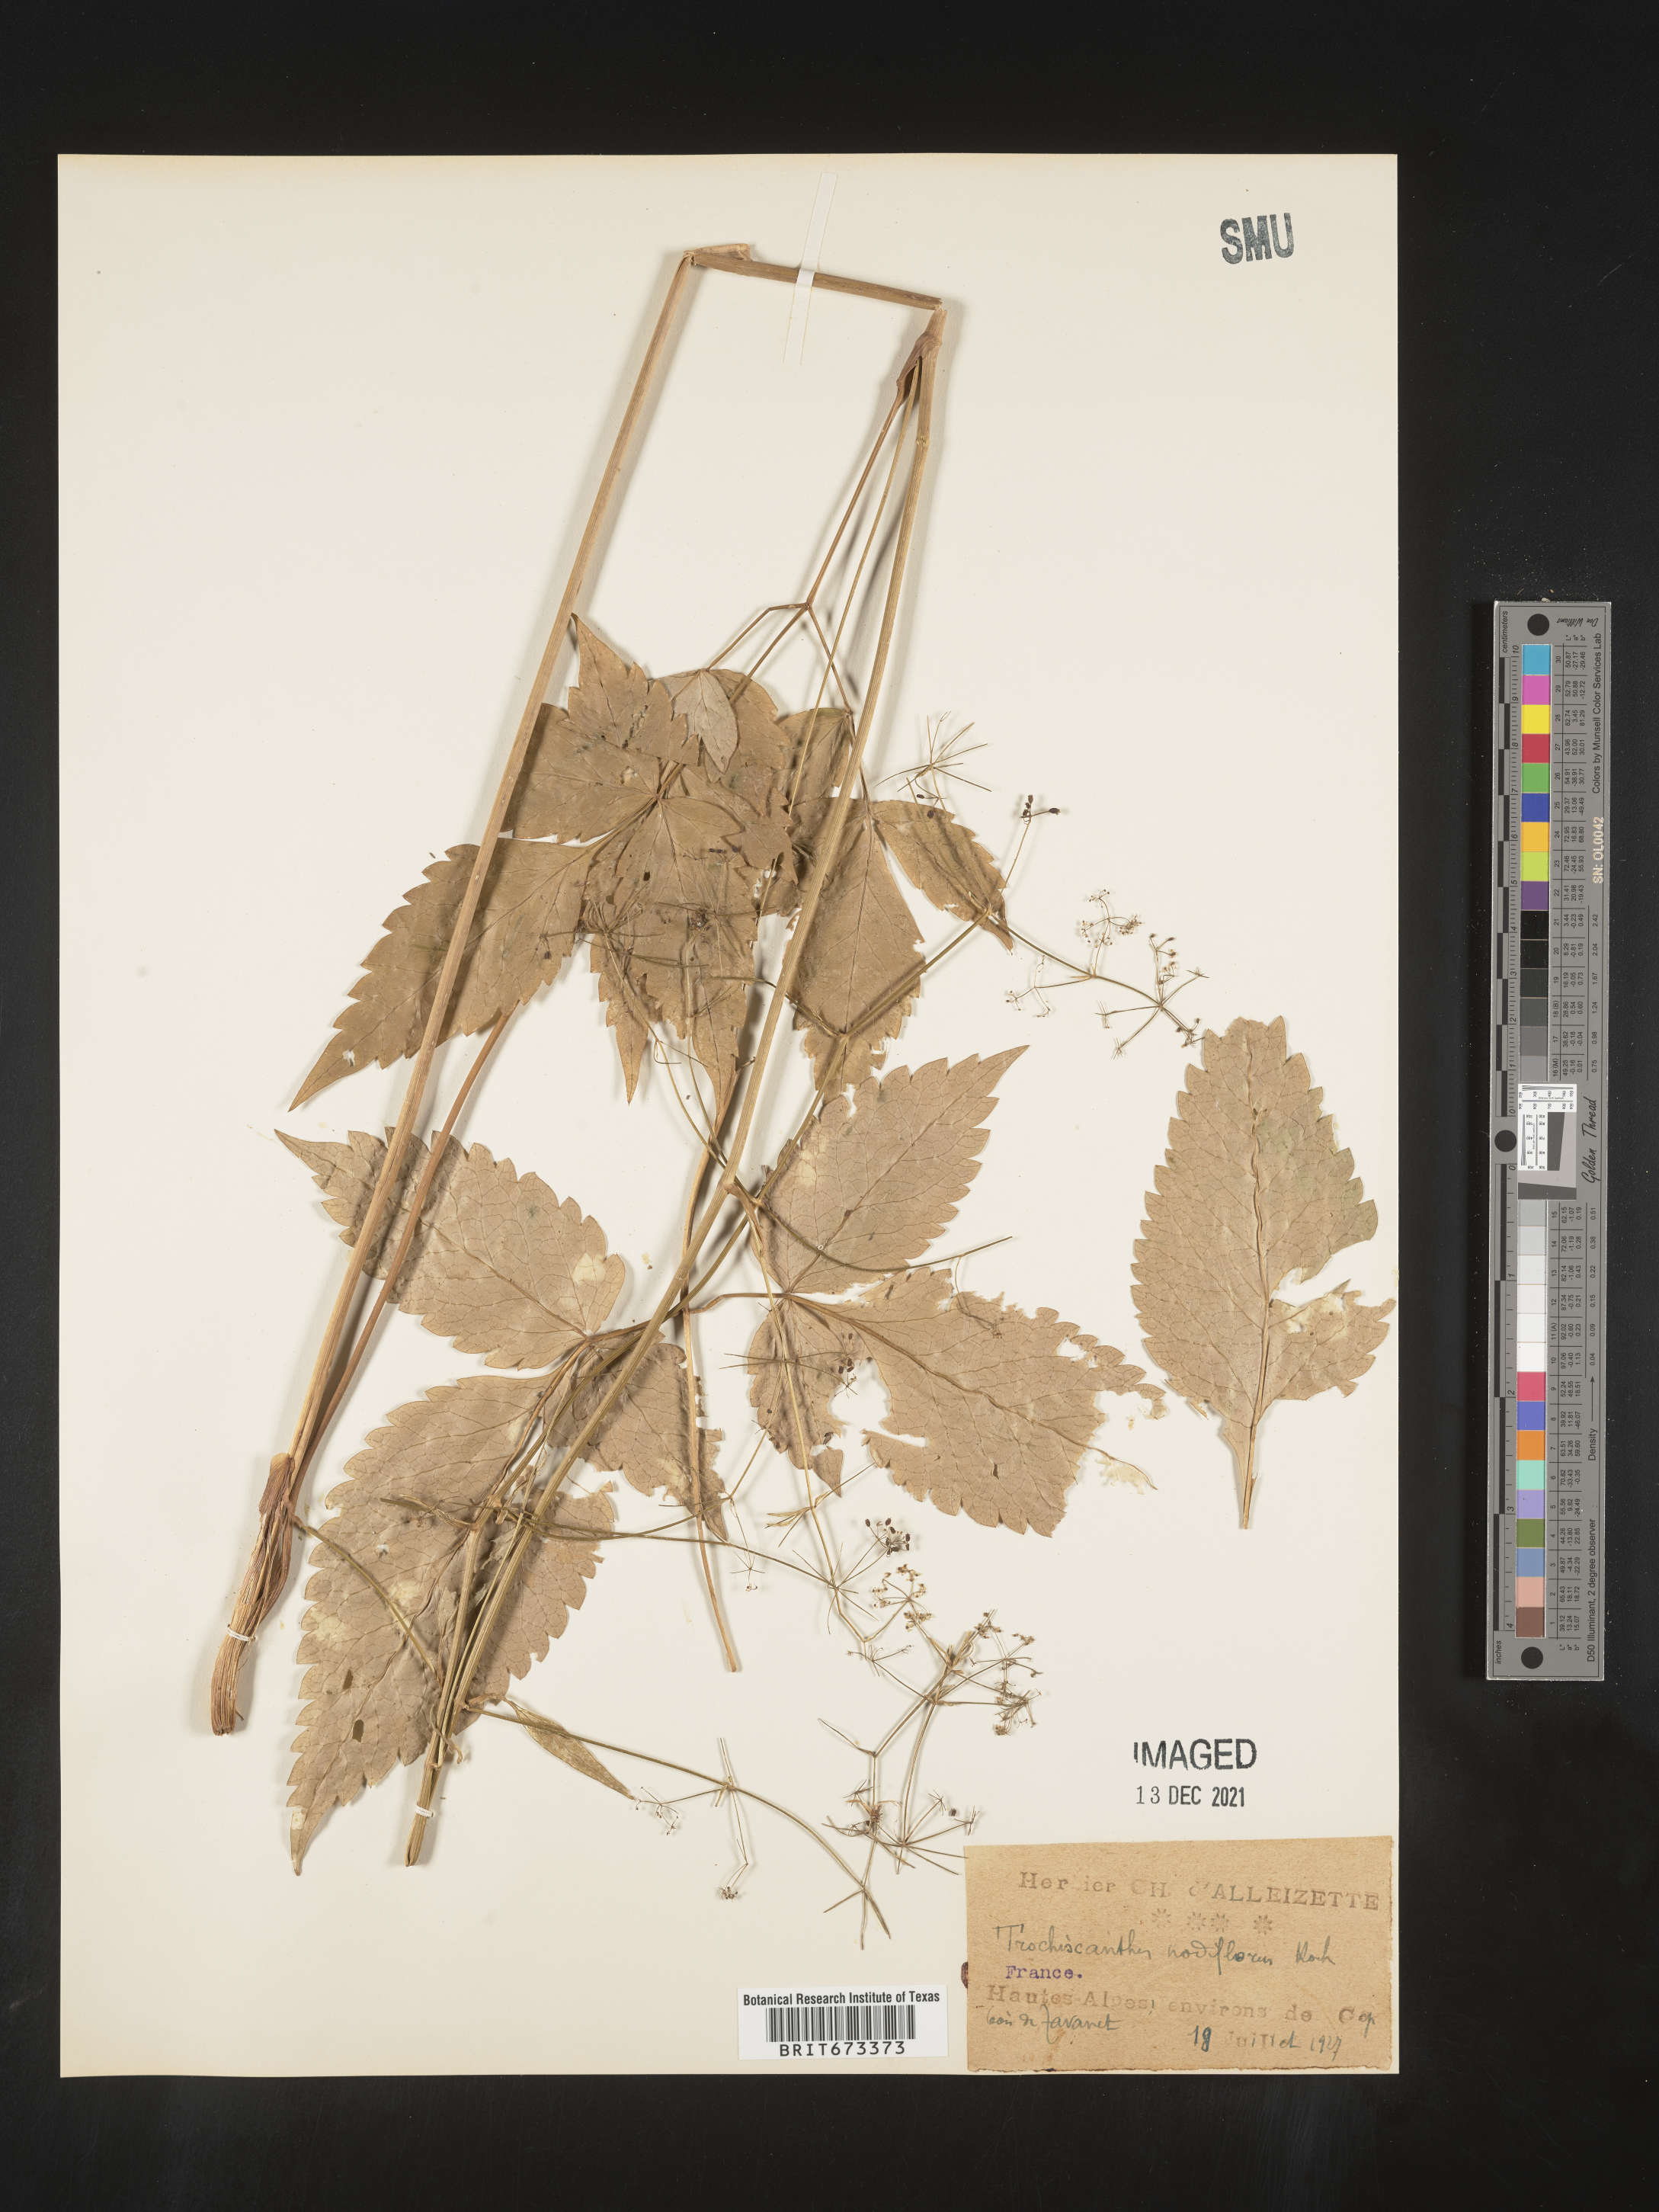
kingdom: Plantae
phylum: Tracheophyta
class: Magnoliopsida
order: Apiales
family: Apiaceae
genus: Trochiscanthes
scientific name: Trochiscanthes
